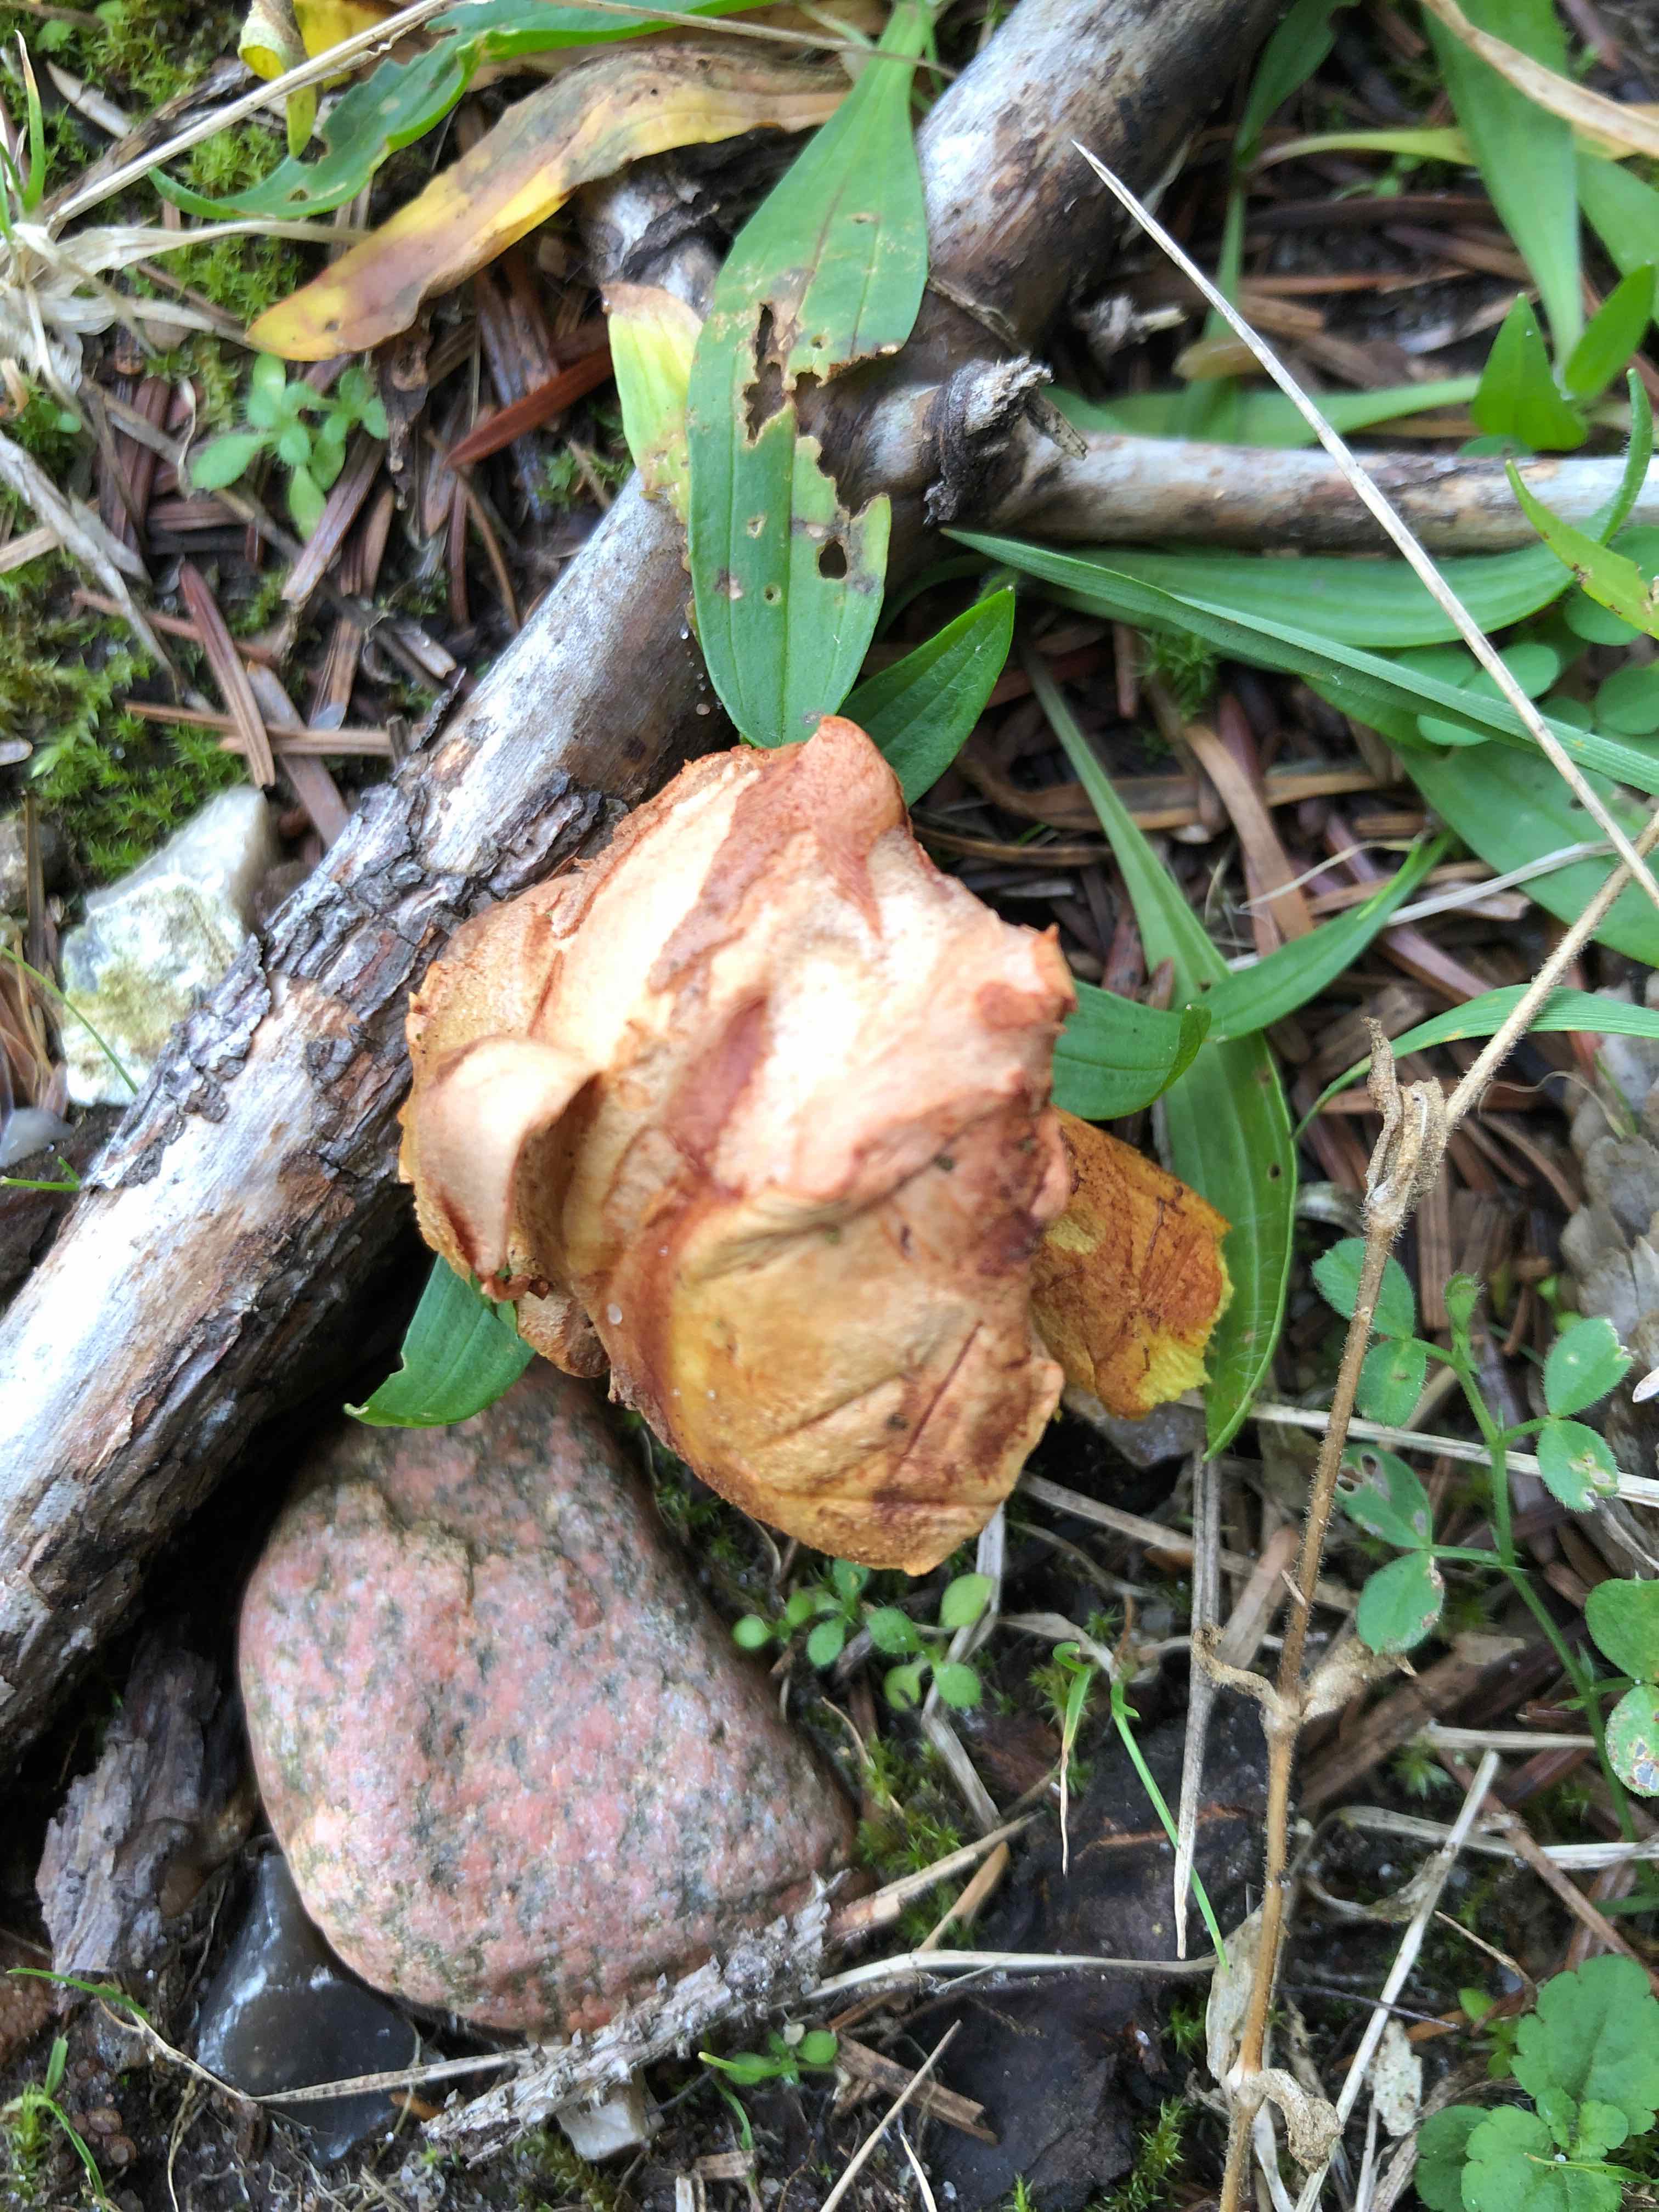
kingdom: Fungi
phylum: Basidiomycota
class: Agaricomycetes
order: Boletales
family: Boletaceae
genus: Chalciporus
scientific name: Chalciporus piperatus
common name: peberrørhat
